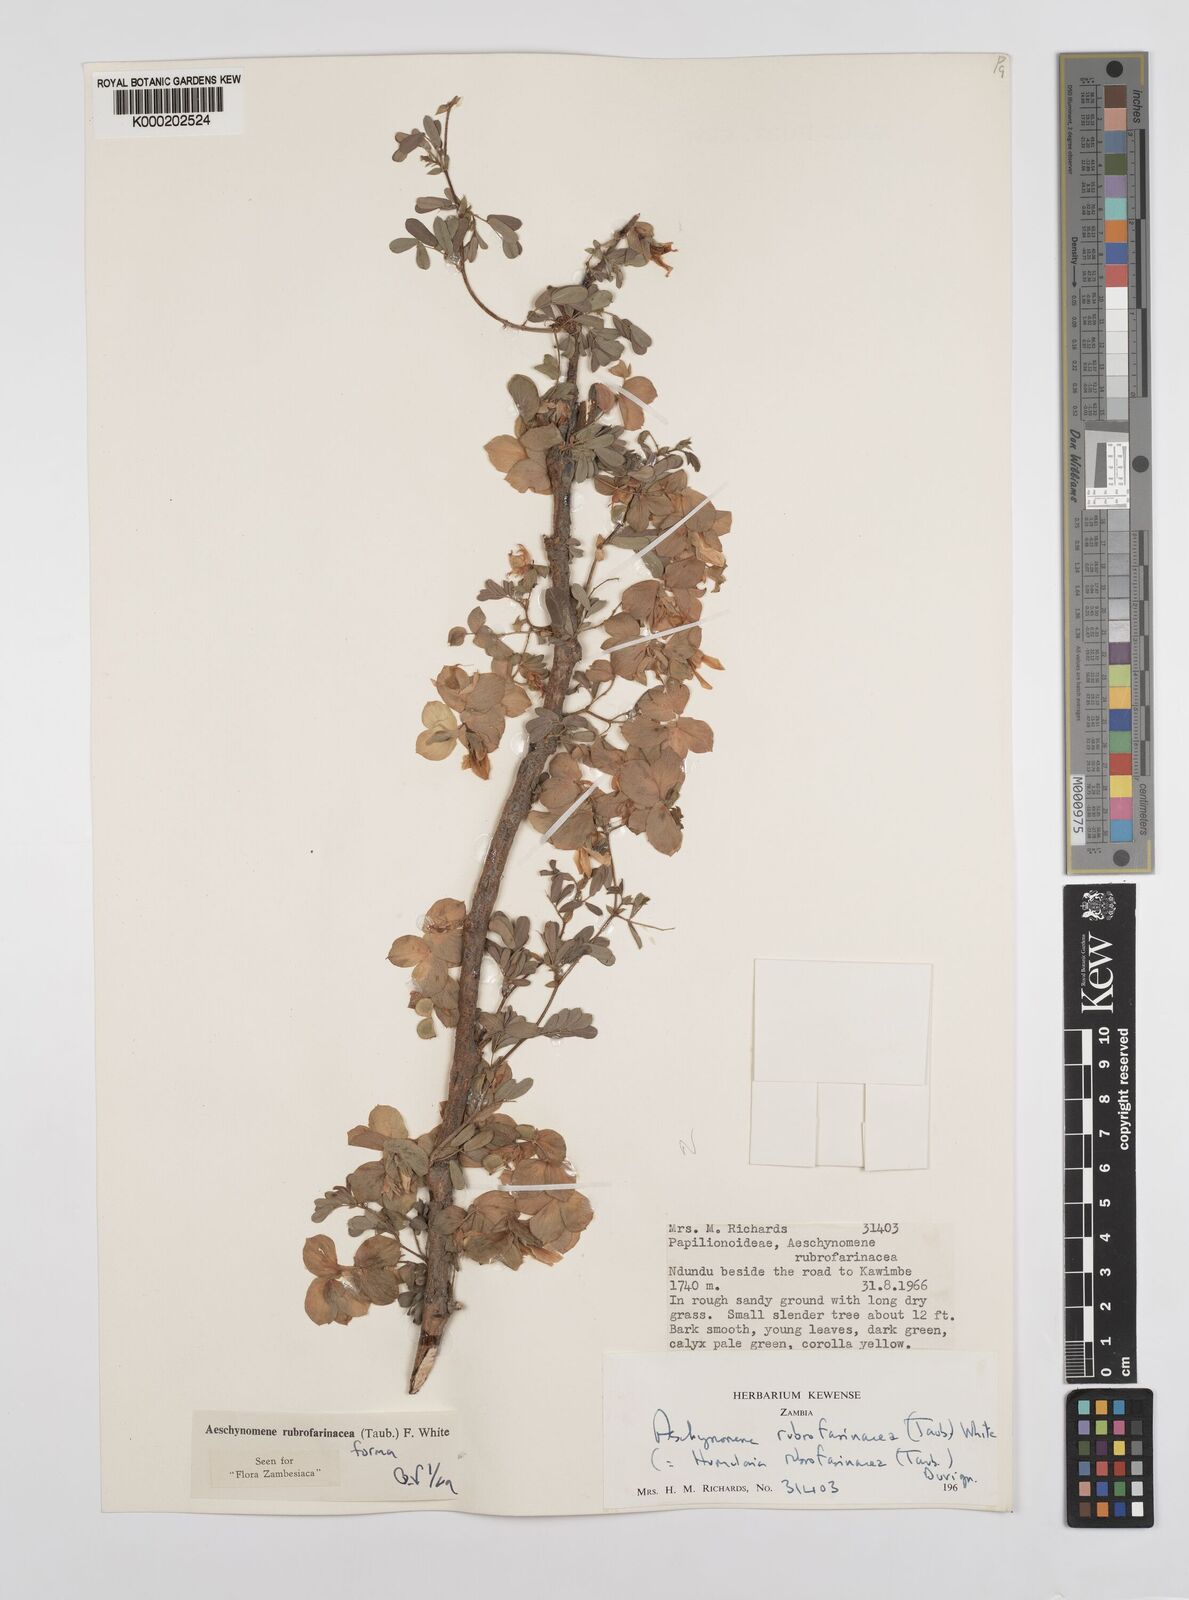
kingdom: Plantae
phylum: Tracheophyta
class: Magnoliopsida
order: Fabales
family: Fabaceae
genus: Aeschynomene
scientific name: Aeschynomene rubrofarinacea
